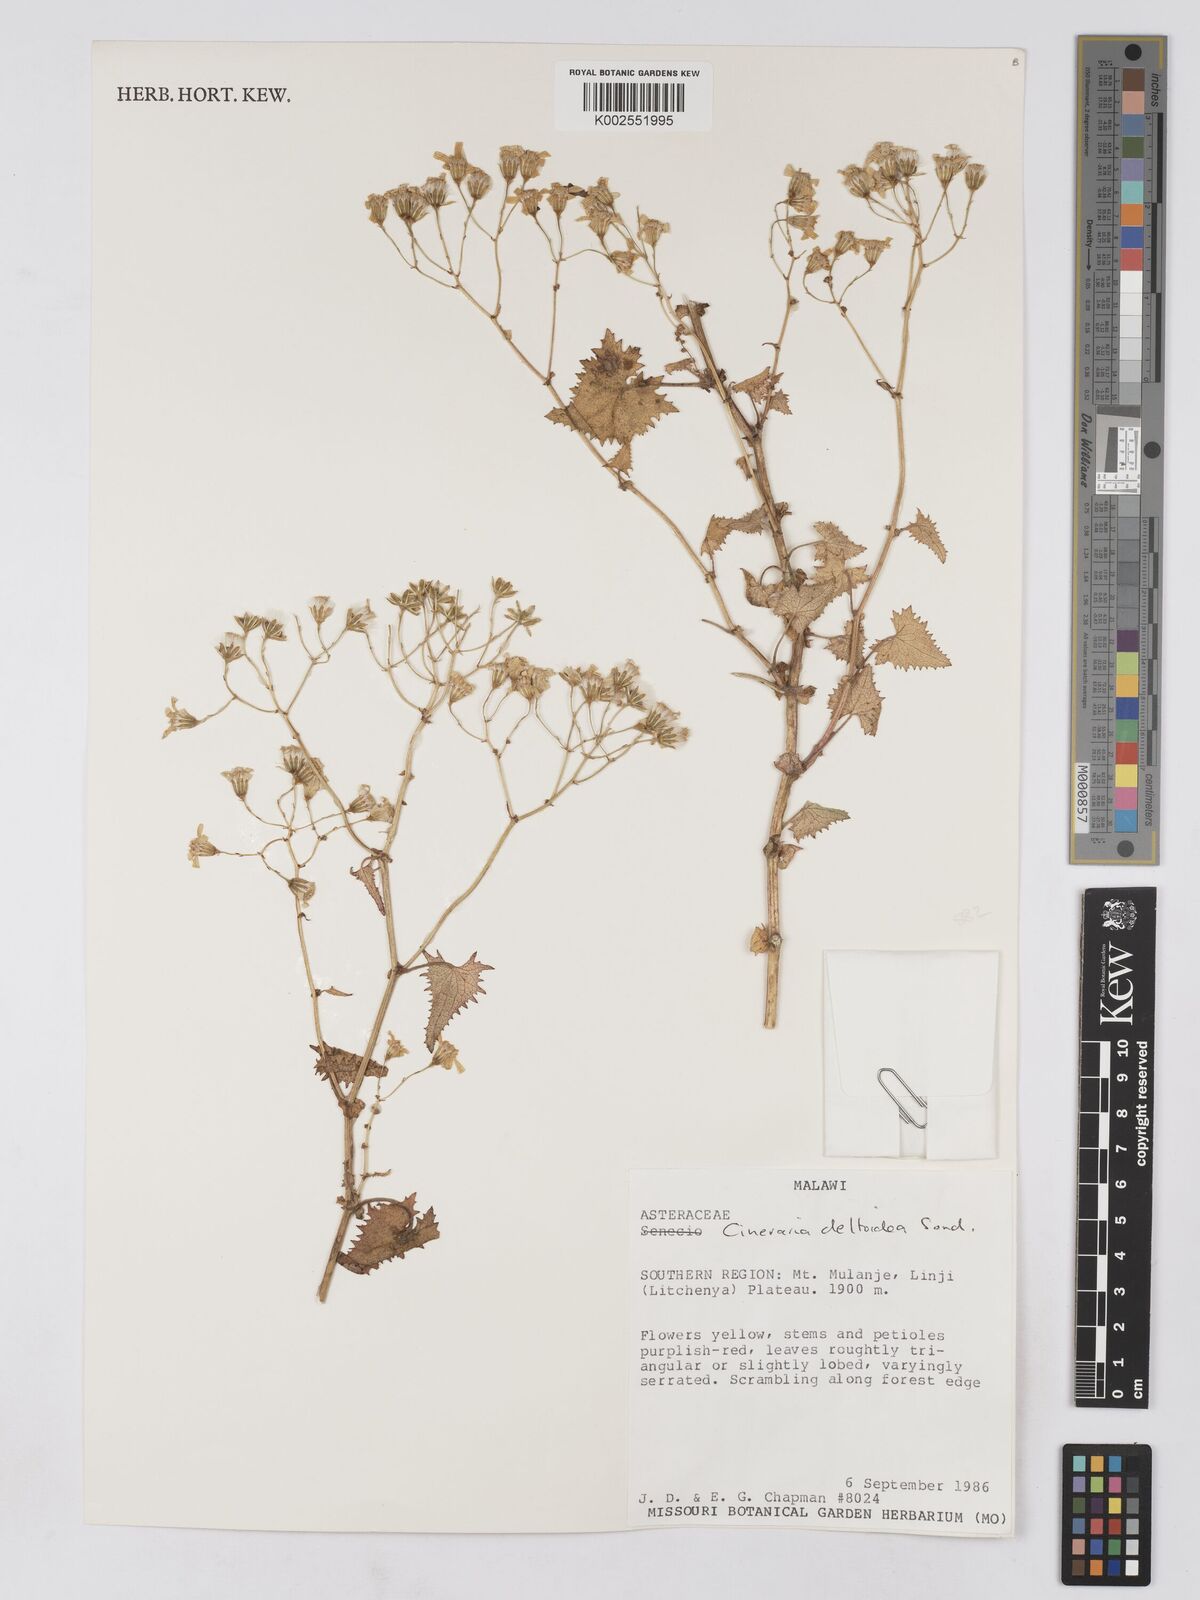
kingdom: Plantae
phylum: Tracheophyta
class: Magnoliopsida
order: Asterales
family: Asteraceae
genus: Cineraria
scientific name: Cineraria deltoidea
